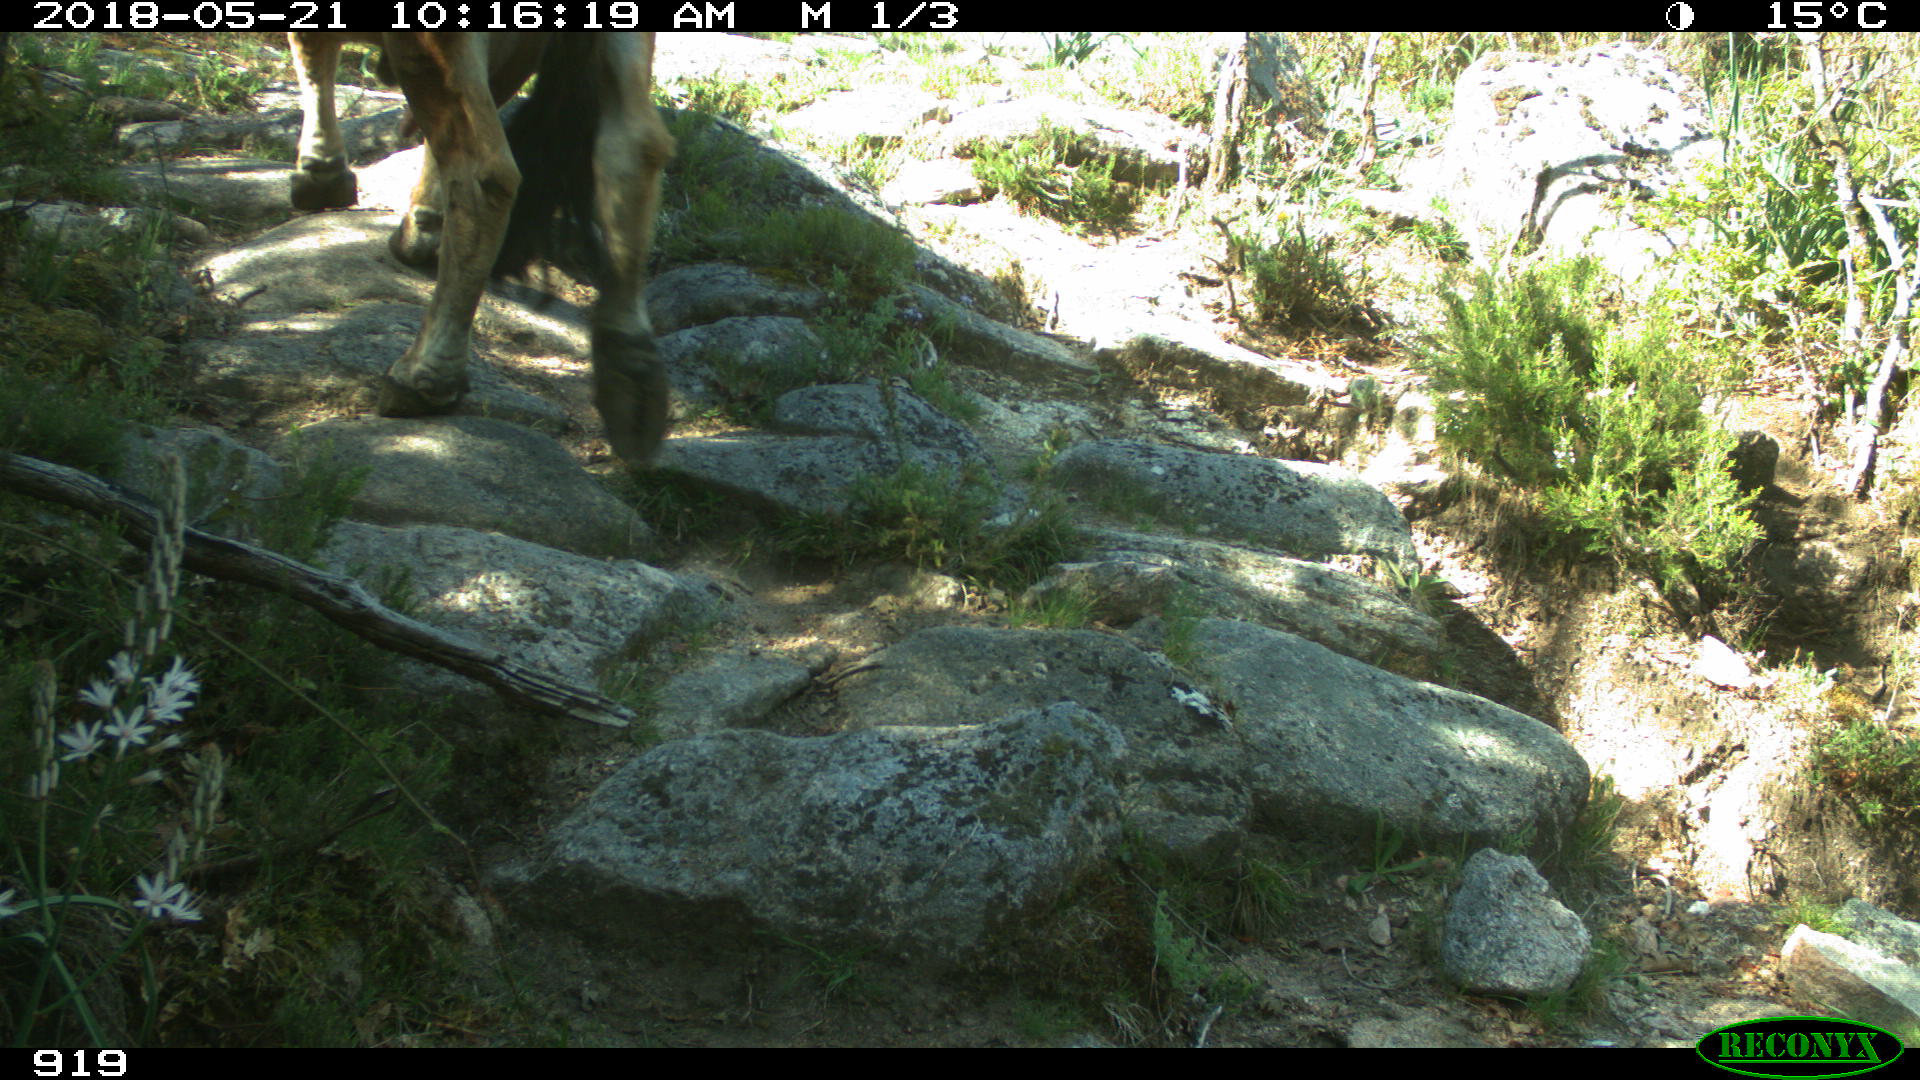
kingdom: Animalia
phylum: Chordata
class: Mammalia
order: Artiodactyla
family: Bovidae
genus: Bos
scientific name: Bos taurus
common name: Domesticated cattle
